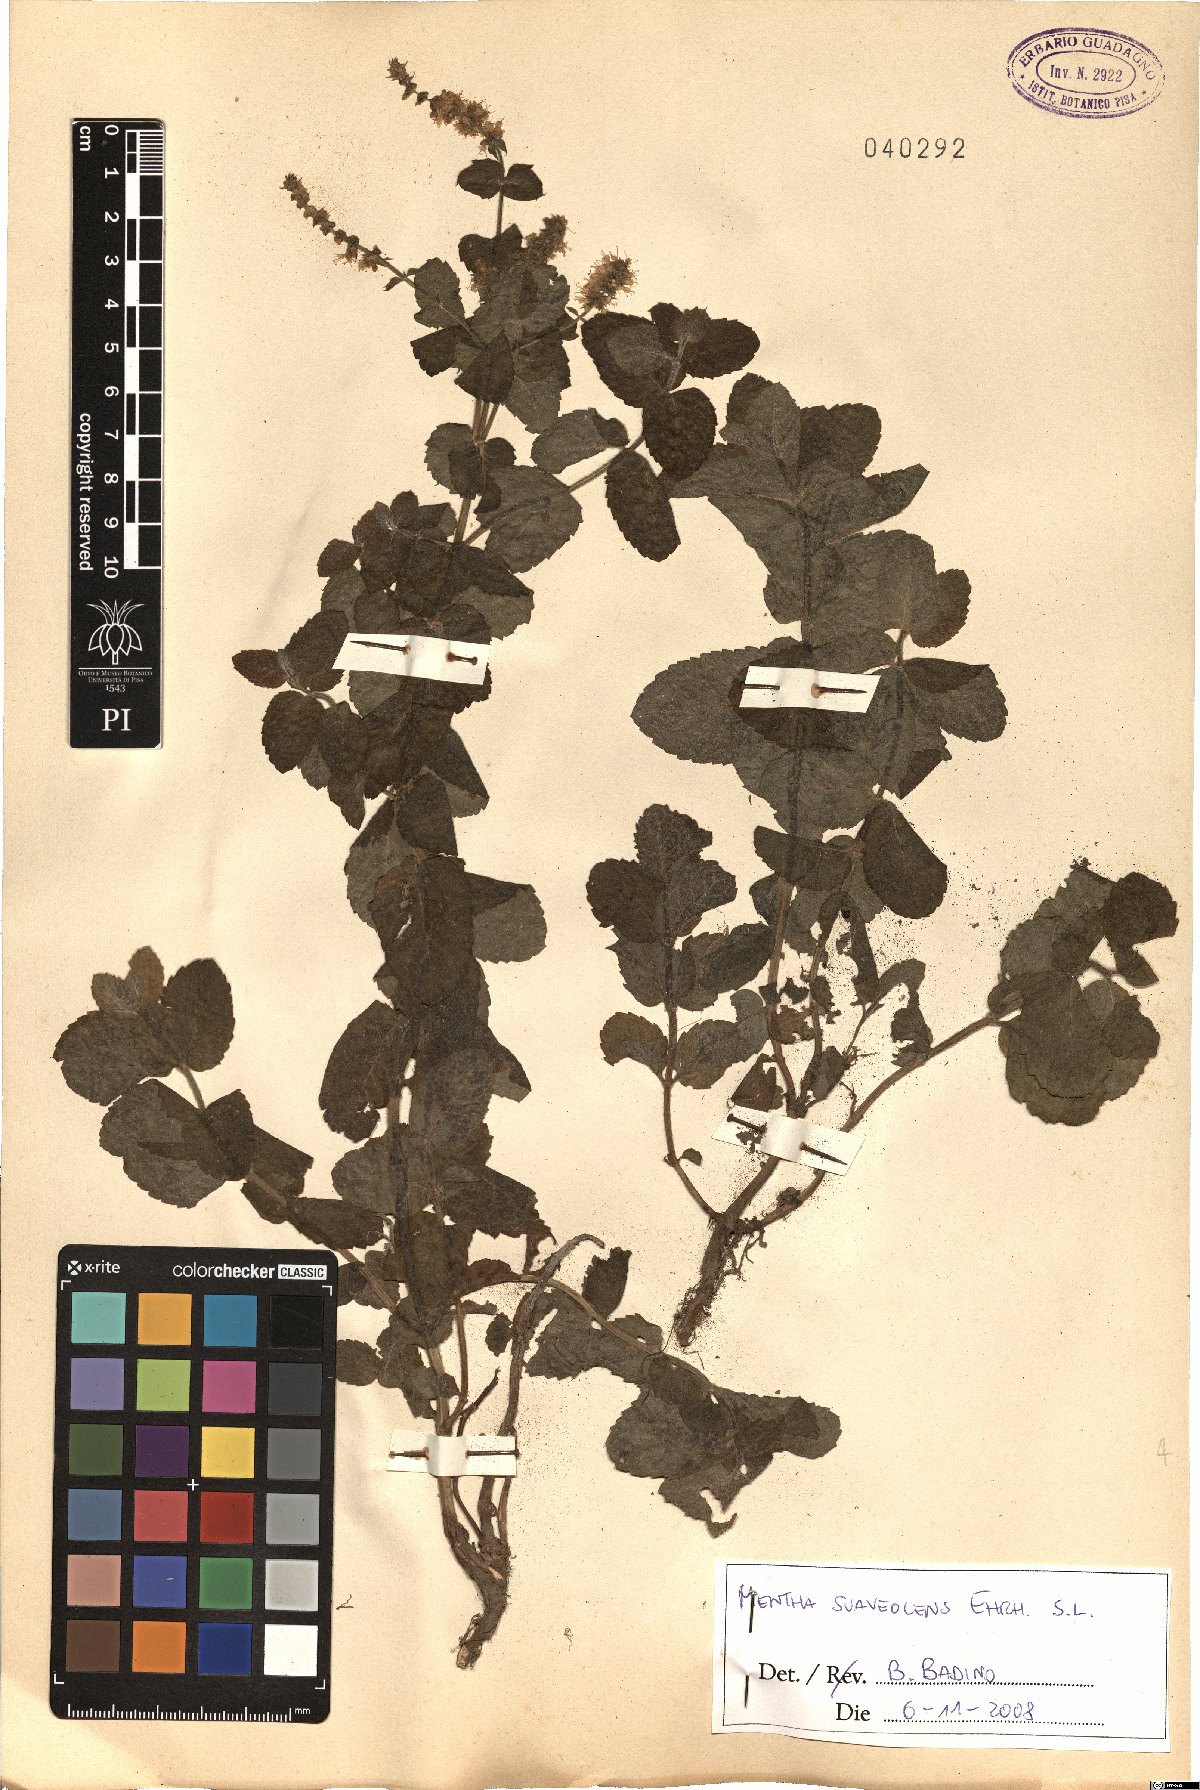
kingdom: Plantae
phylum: Tracheophyta
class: Magnoliopsida
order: Lamiales
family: Lamiaceae
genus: Mentha
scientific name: Mentha suaveolens
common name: Apple mint
